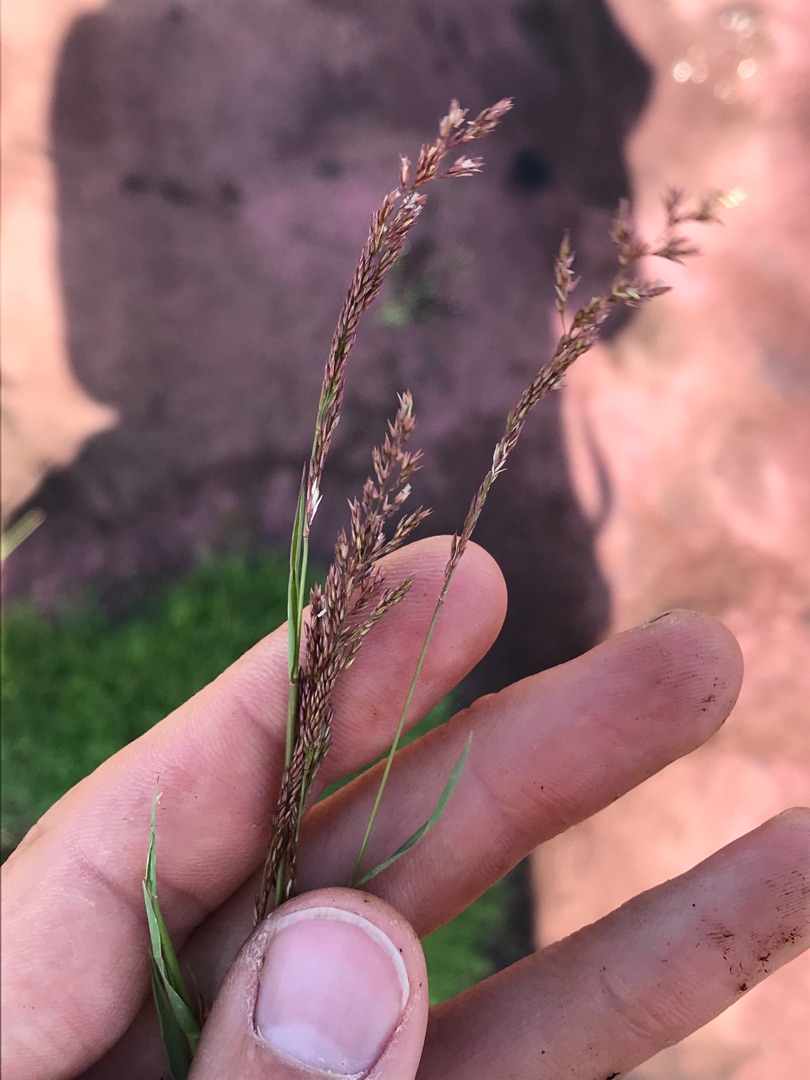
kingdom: Plantae
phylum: Tracheophyta
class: Liliopsida
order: Poales
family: Poaceae
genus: Agrostis
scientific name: Agrostis stolonifera
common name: Kryb-hvene
